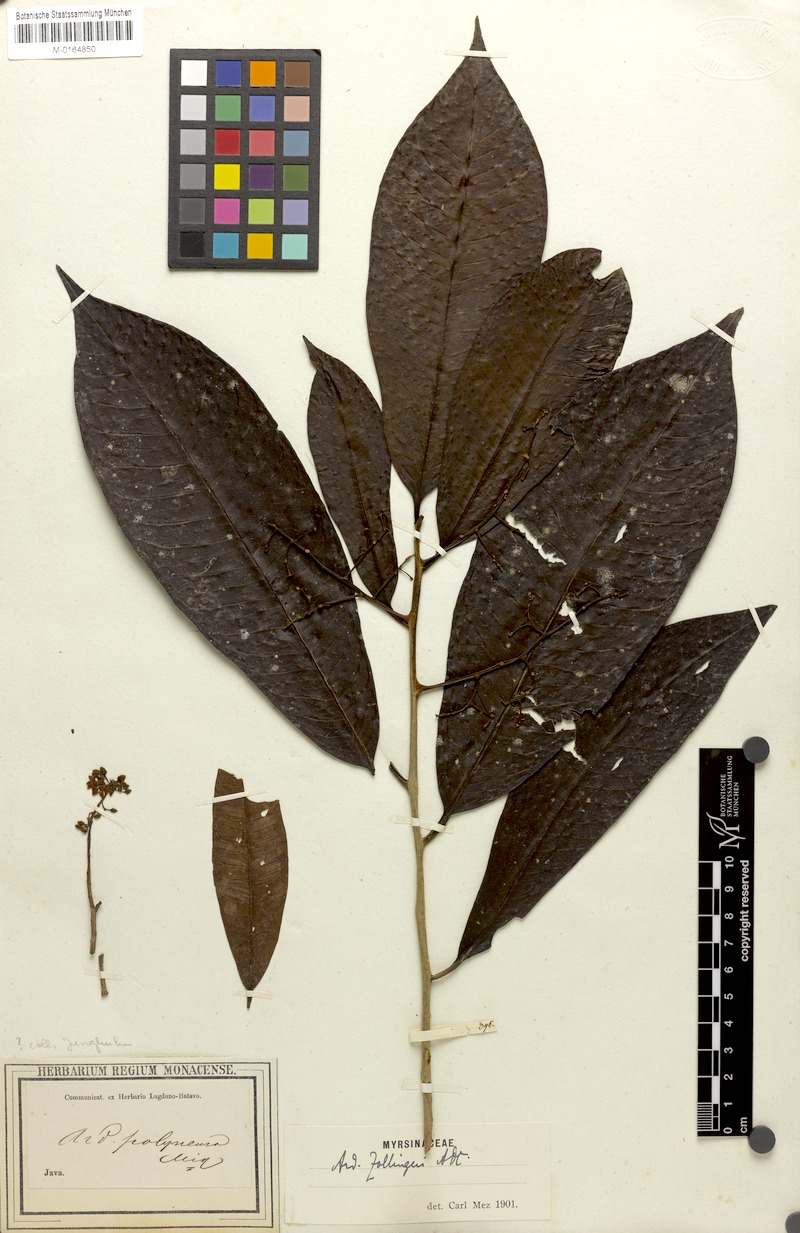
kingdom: Plantae
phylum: Tracheophyta
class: Magnoliopsida
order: Ericales
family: Primulaceae
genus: Ardisia
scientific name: Ardisia colorata
